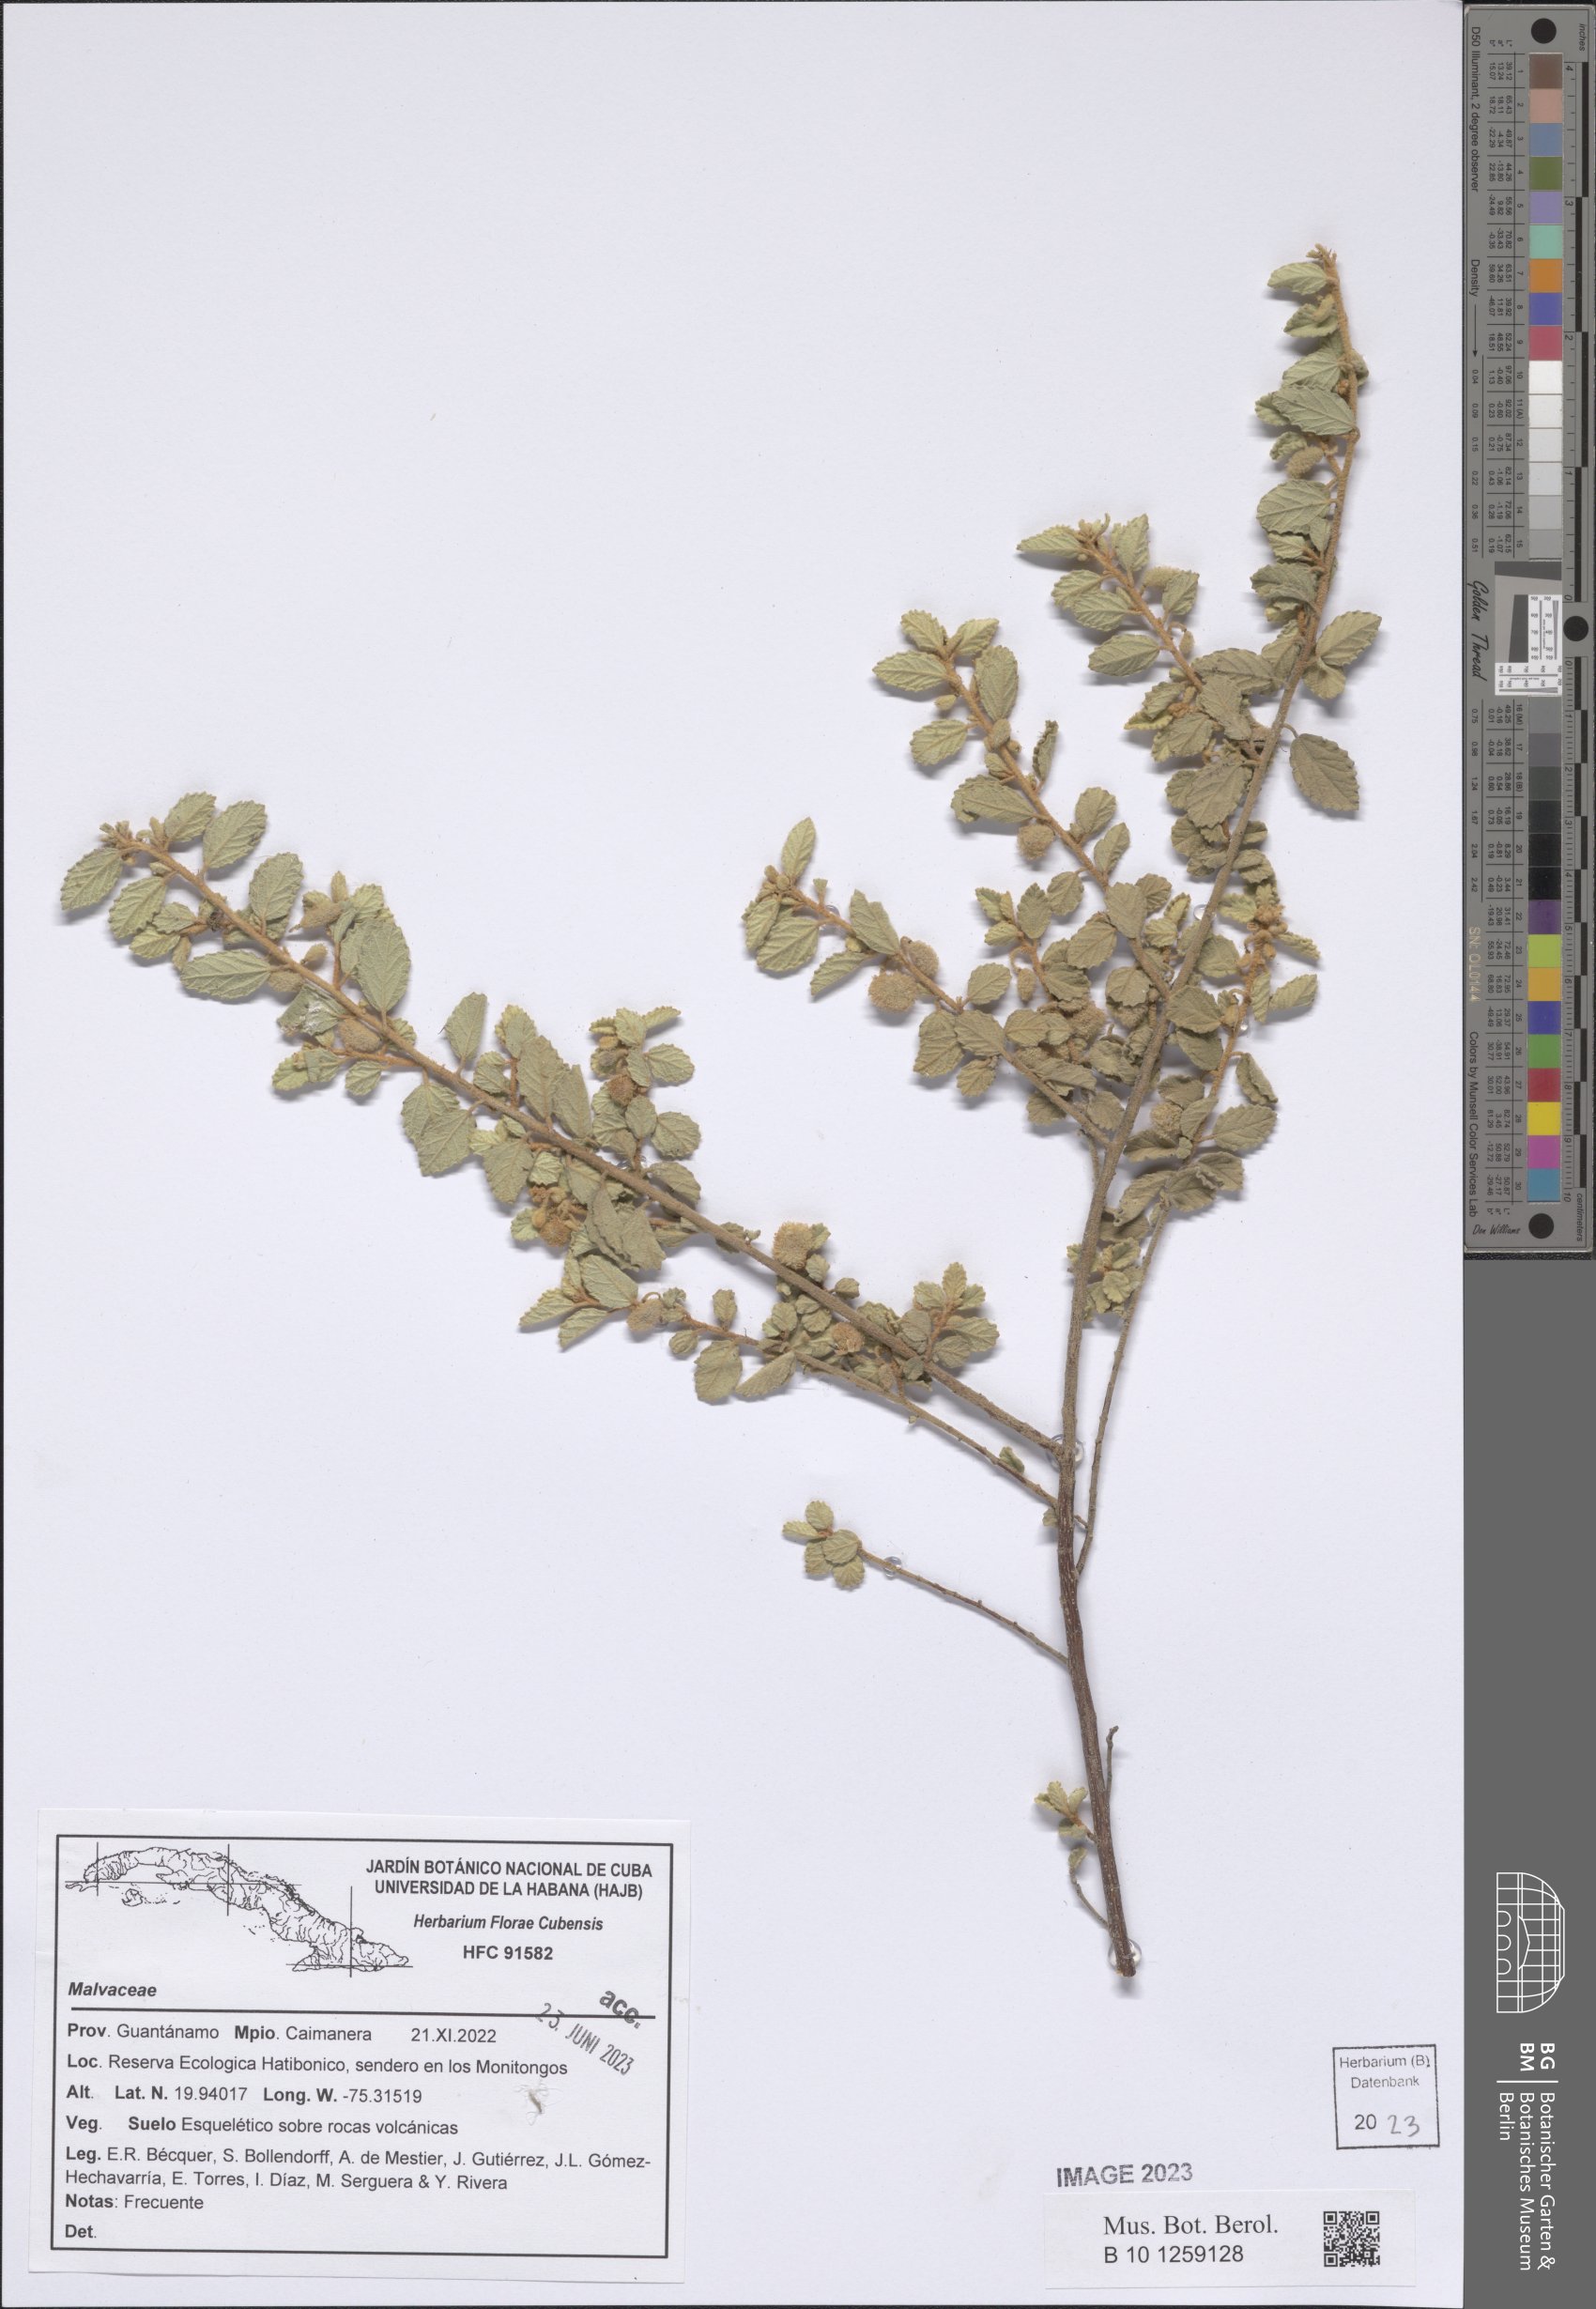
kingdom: Plantae
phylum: Tracheophyta
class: Magnoliopsida
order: Malvales
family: Malvaceae
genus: Corchorus
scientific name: Corchorus hirsutus
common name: Jackswitch
